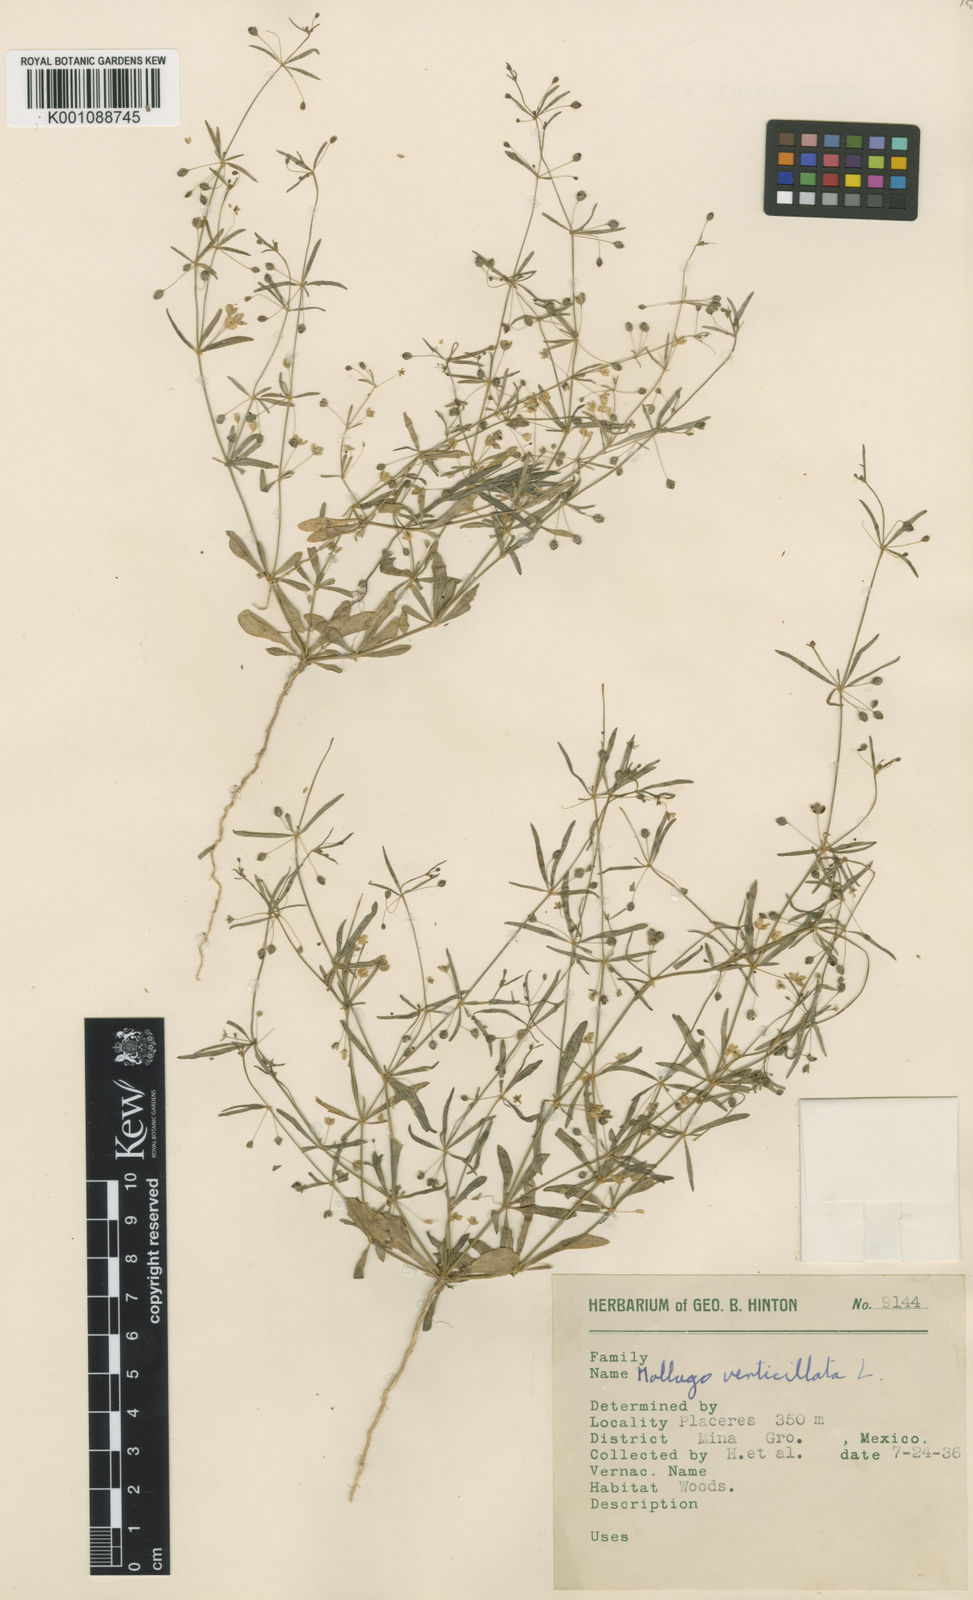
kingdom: Plantae
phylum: Tracheophyta
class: Magnoliopsida
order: Caryophyllales
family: Molluginaceae
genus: Mollugo
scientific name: Mollugo verticillata
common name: Green carpetweed
